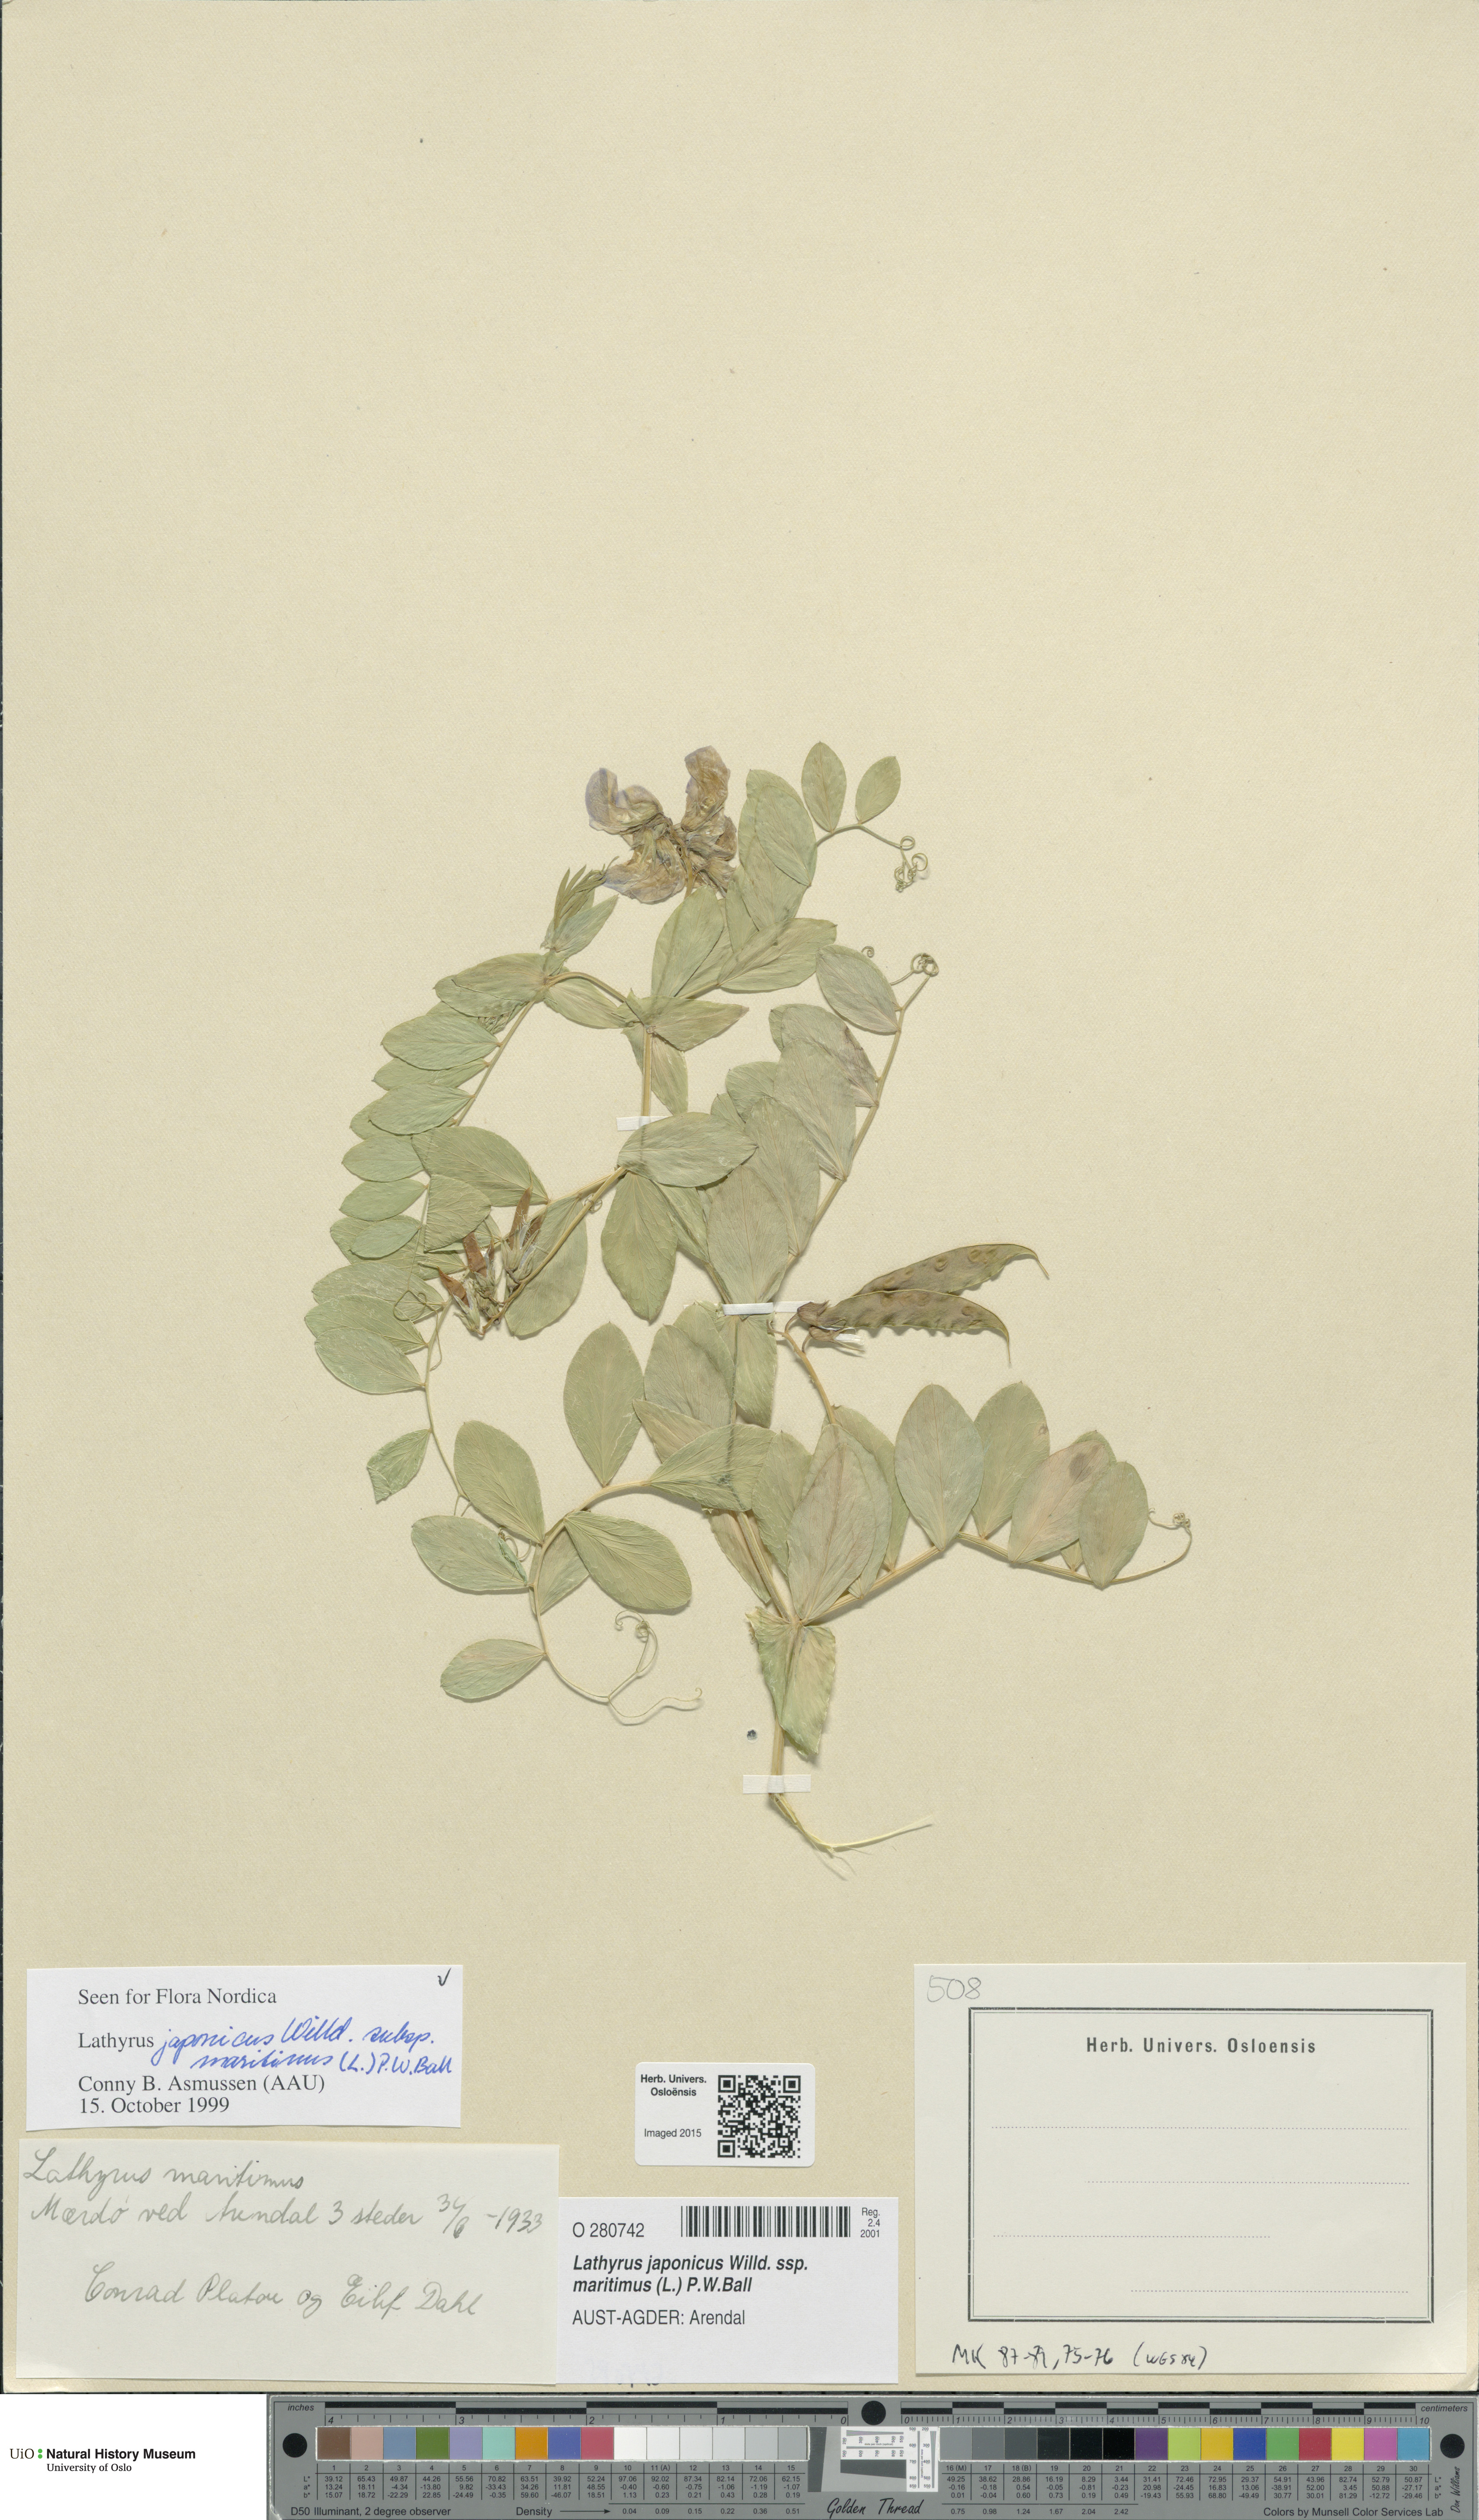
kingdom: Plantae
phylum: Tracheophyta
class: Magnoliopsida
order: Fabales
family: Fabaceae
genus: Lathyrus
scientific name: Lathyrus japonicus
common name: Sea pea
